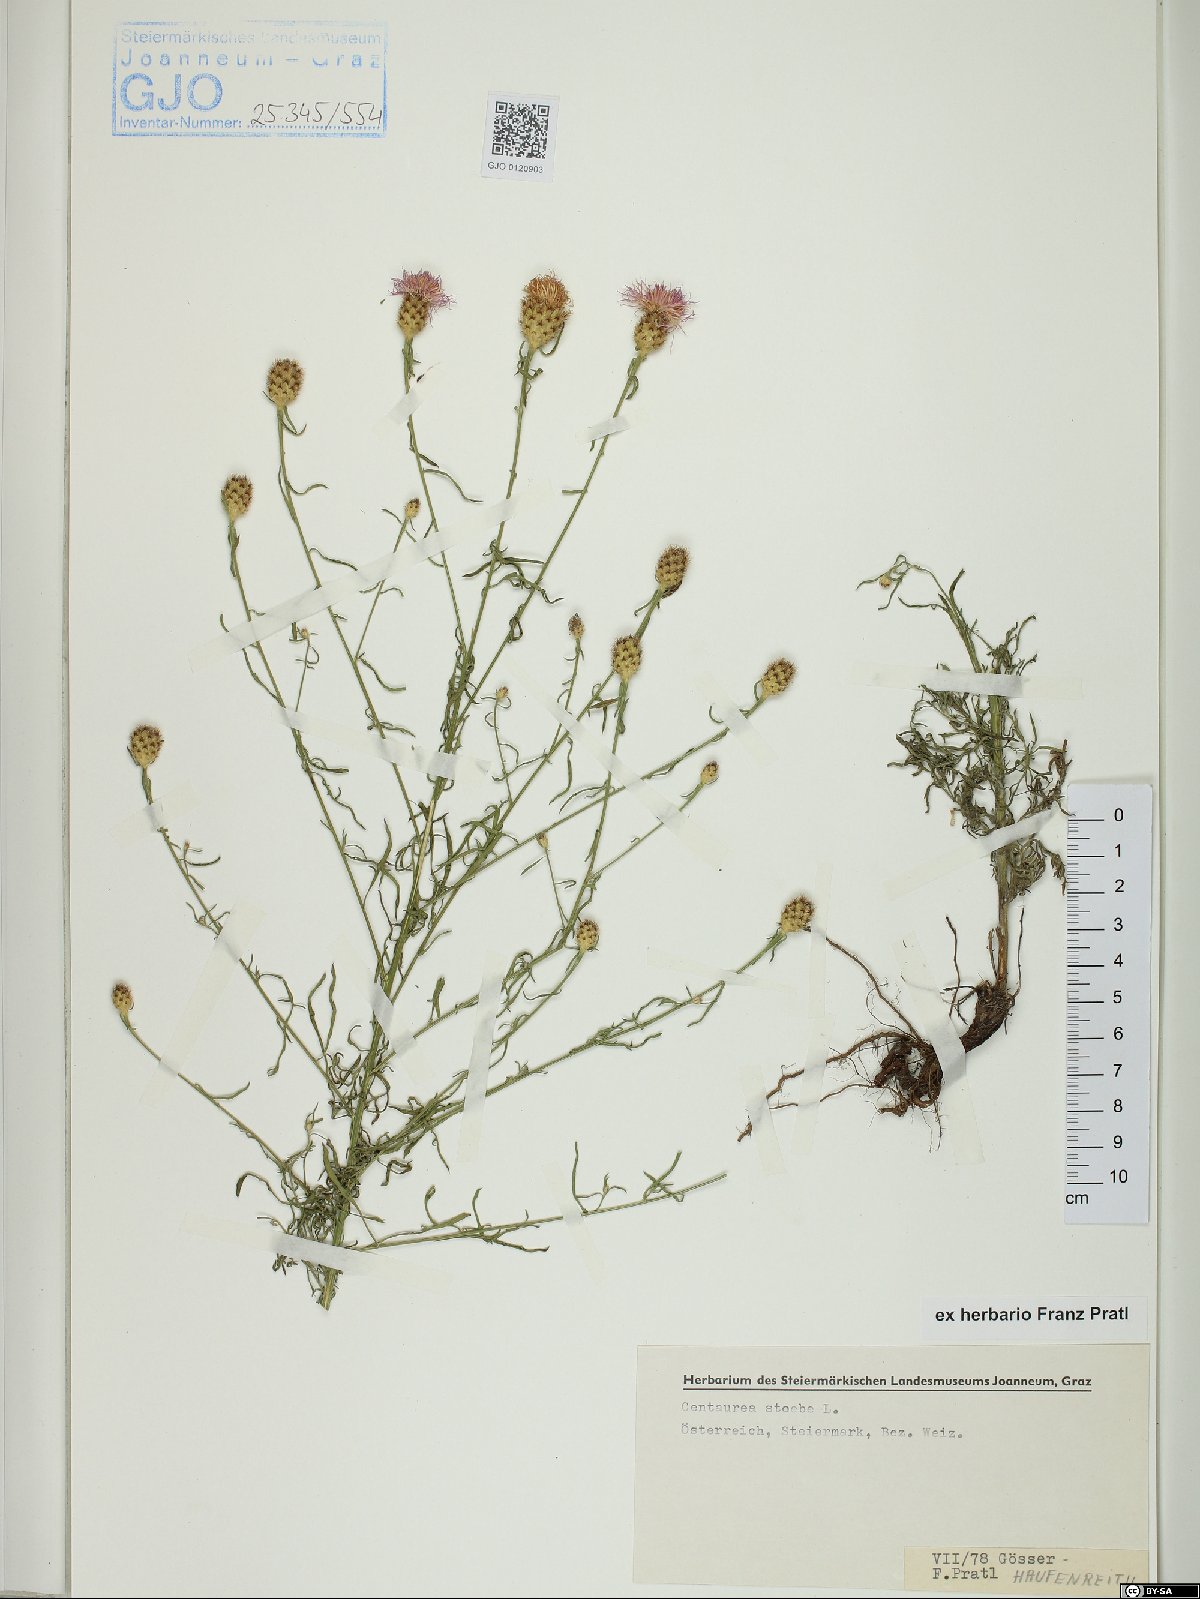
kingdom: Plantae
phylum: Tracheophyta
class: Magnoliopsida
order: Asterales
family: Asteraceae
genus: Centaurea
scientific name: Centaurea stoebe
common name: Spotted knapweed
